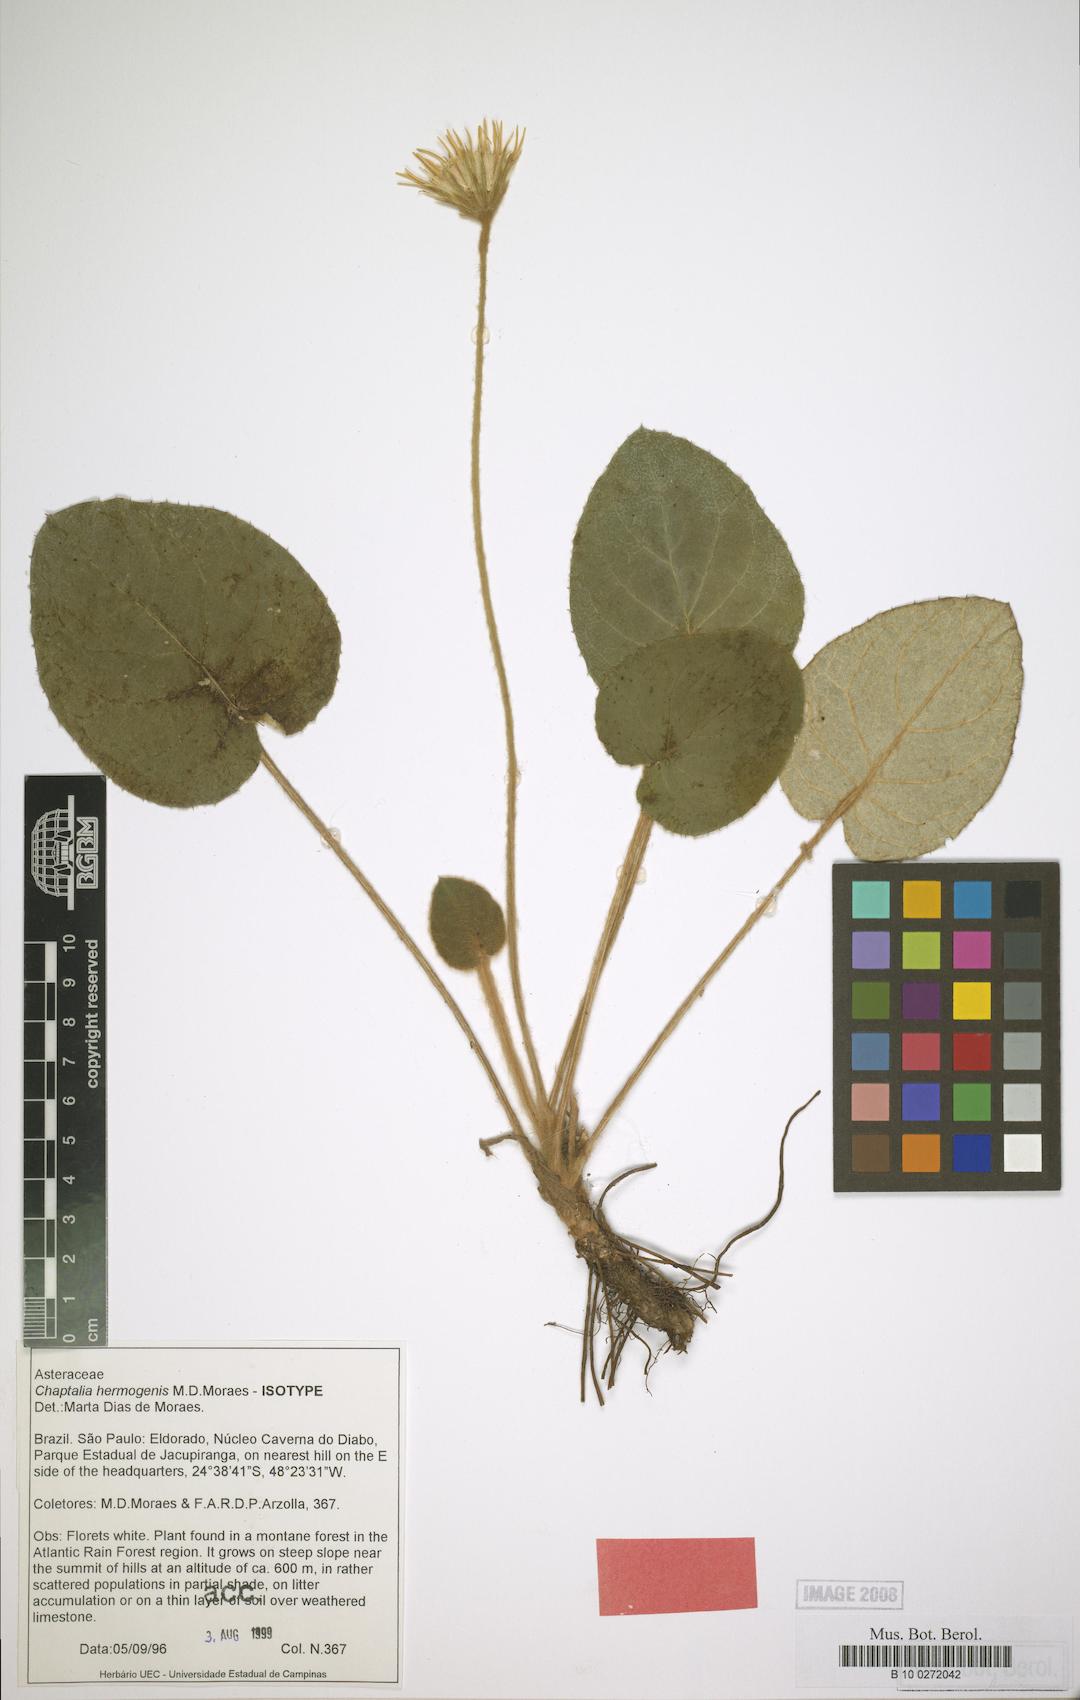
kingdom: Plantae
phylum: Tracheophyta
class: Magnoliopsida
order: Asterales
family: Asteraceae
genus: Chaptalia
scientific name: Chaptalia hermogenis
